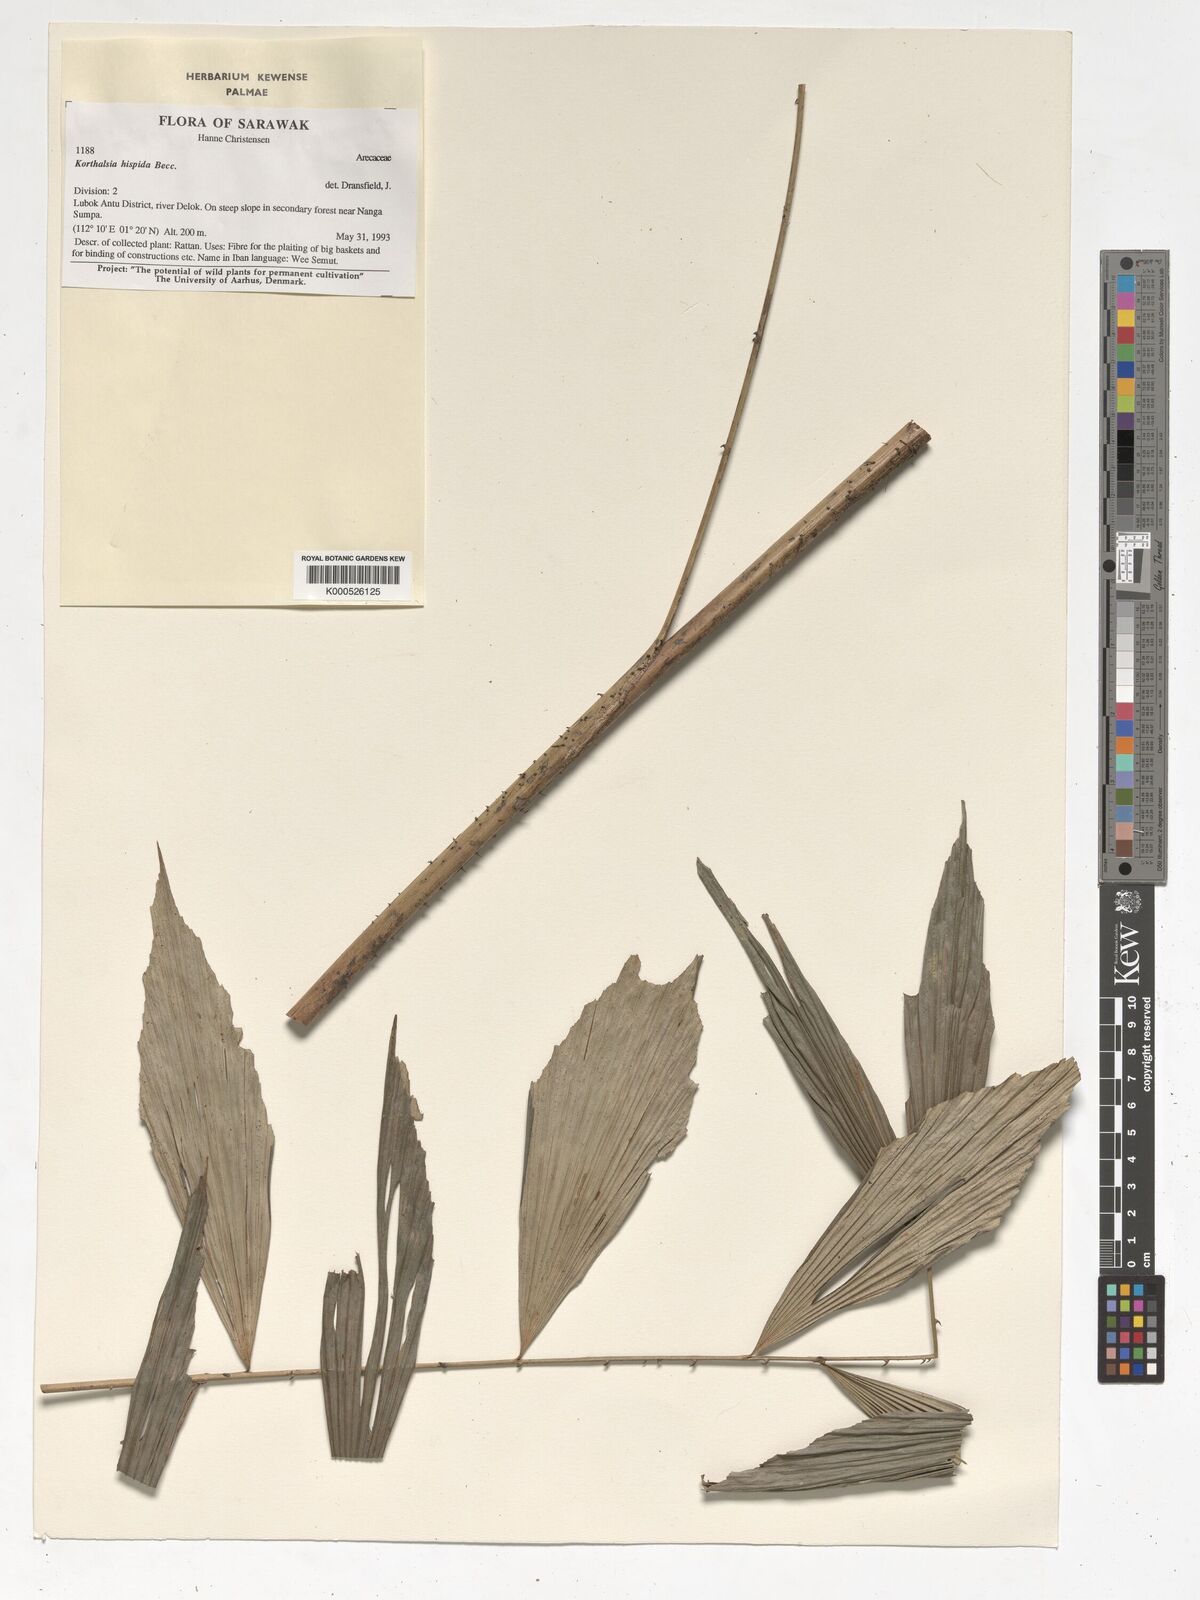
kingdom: Plantae
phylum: Tracheophyta
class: Liliopsida
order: Arecales
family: Arecaceae
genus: Korthalsia
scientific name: Korthalsia hispida
